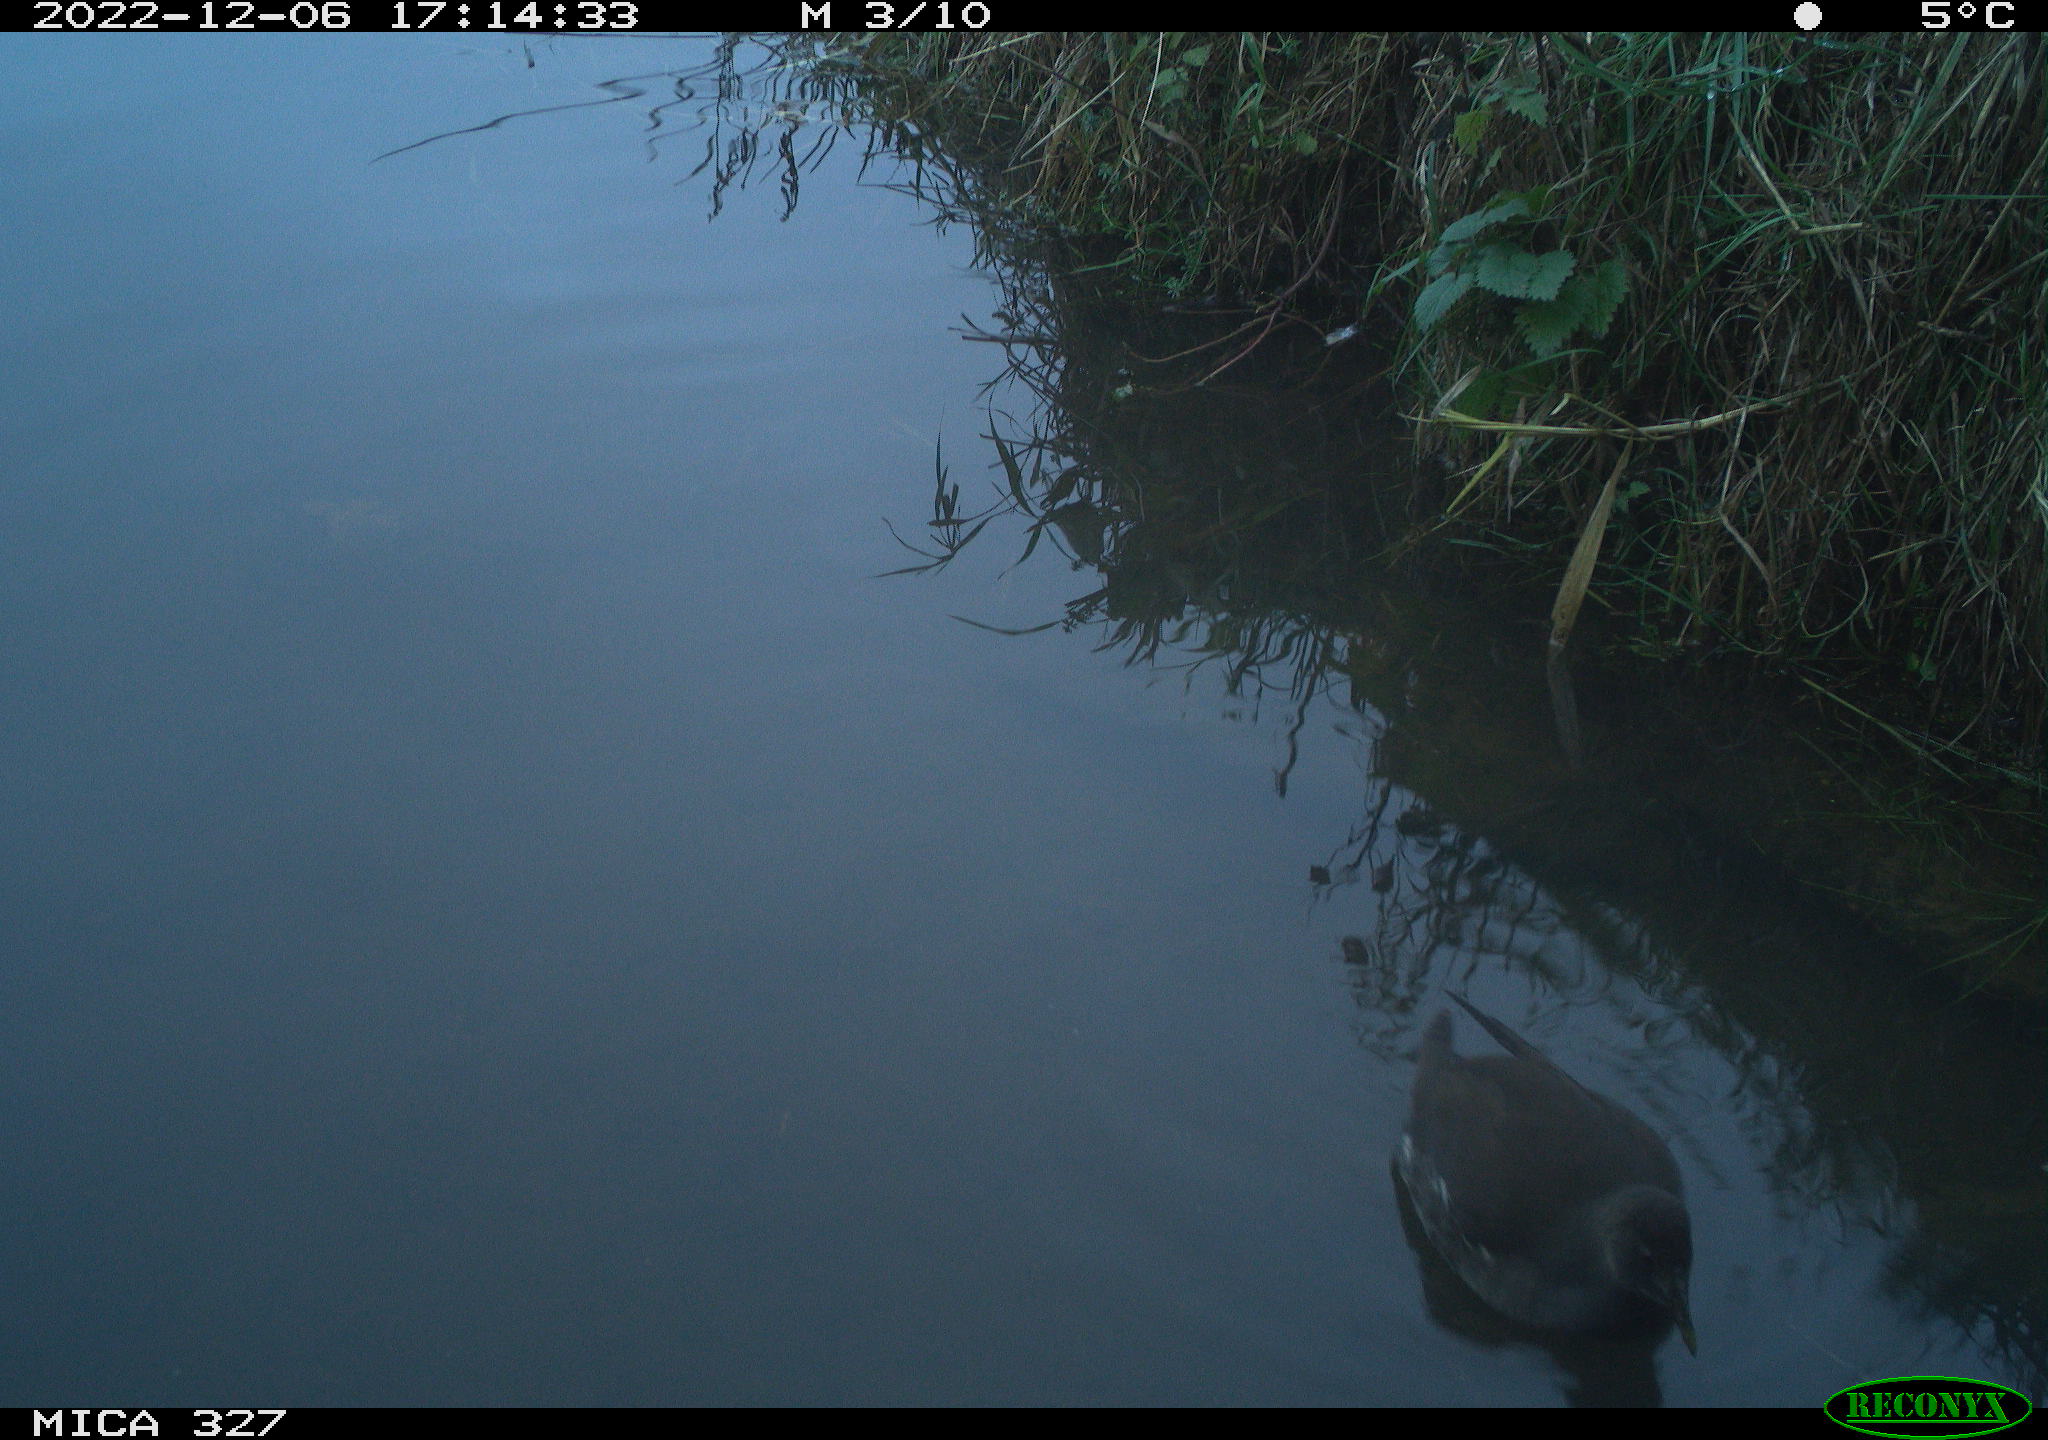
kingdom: Animalia
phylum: Chordata
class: Aves
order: Gruiformes
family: Rallidae
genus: Gallinula
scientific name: Gallinula chloropus
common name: Common moorhen
